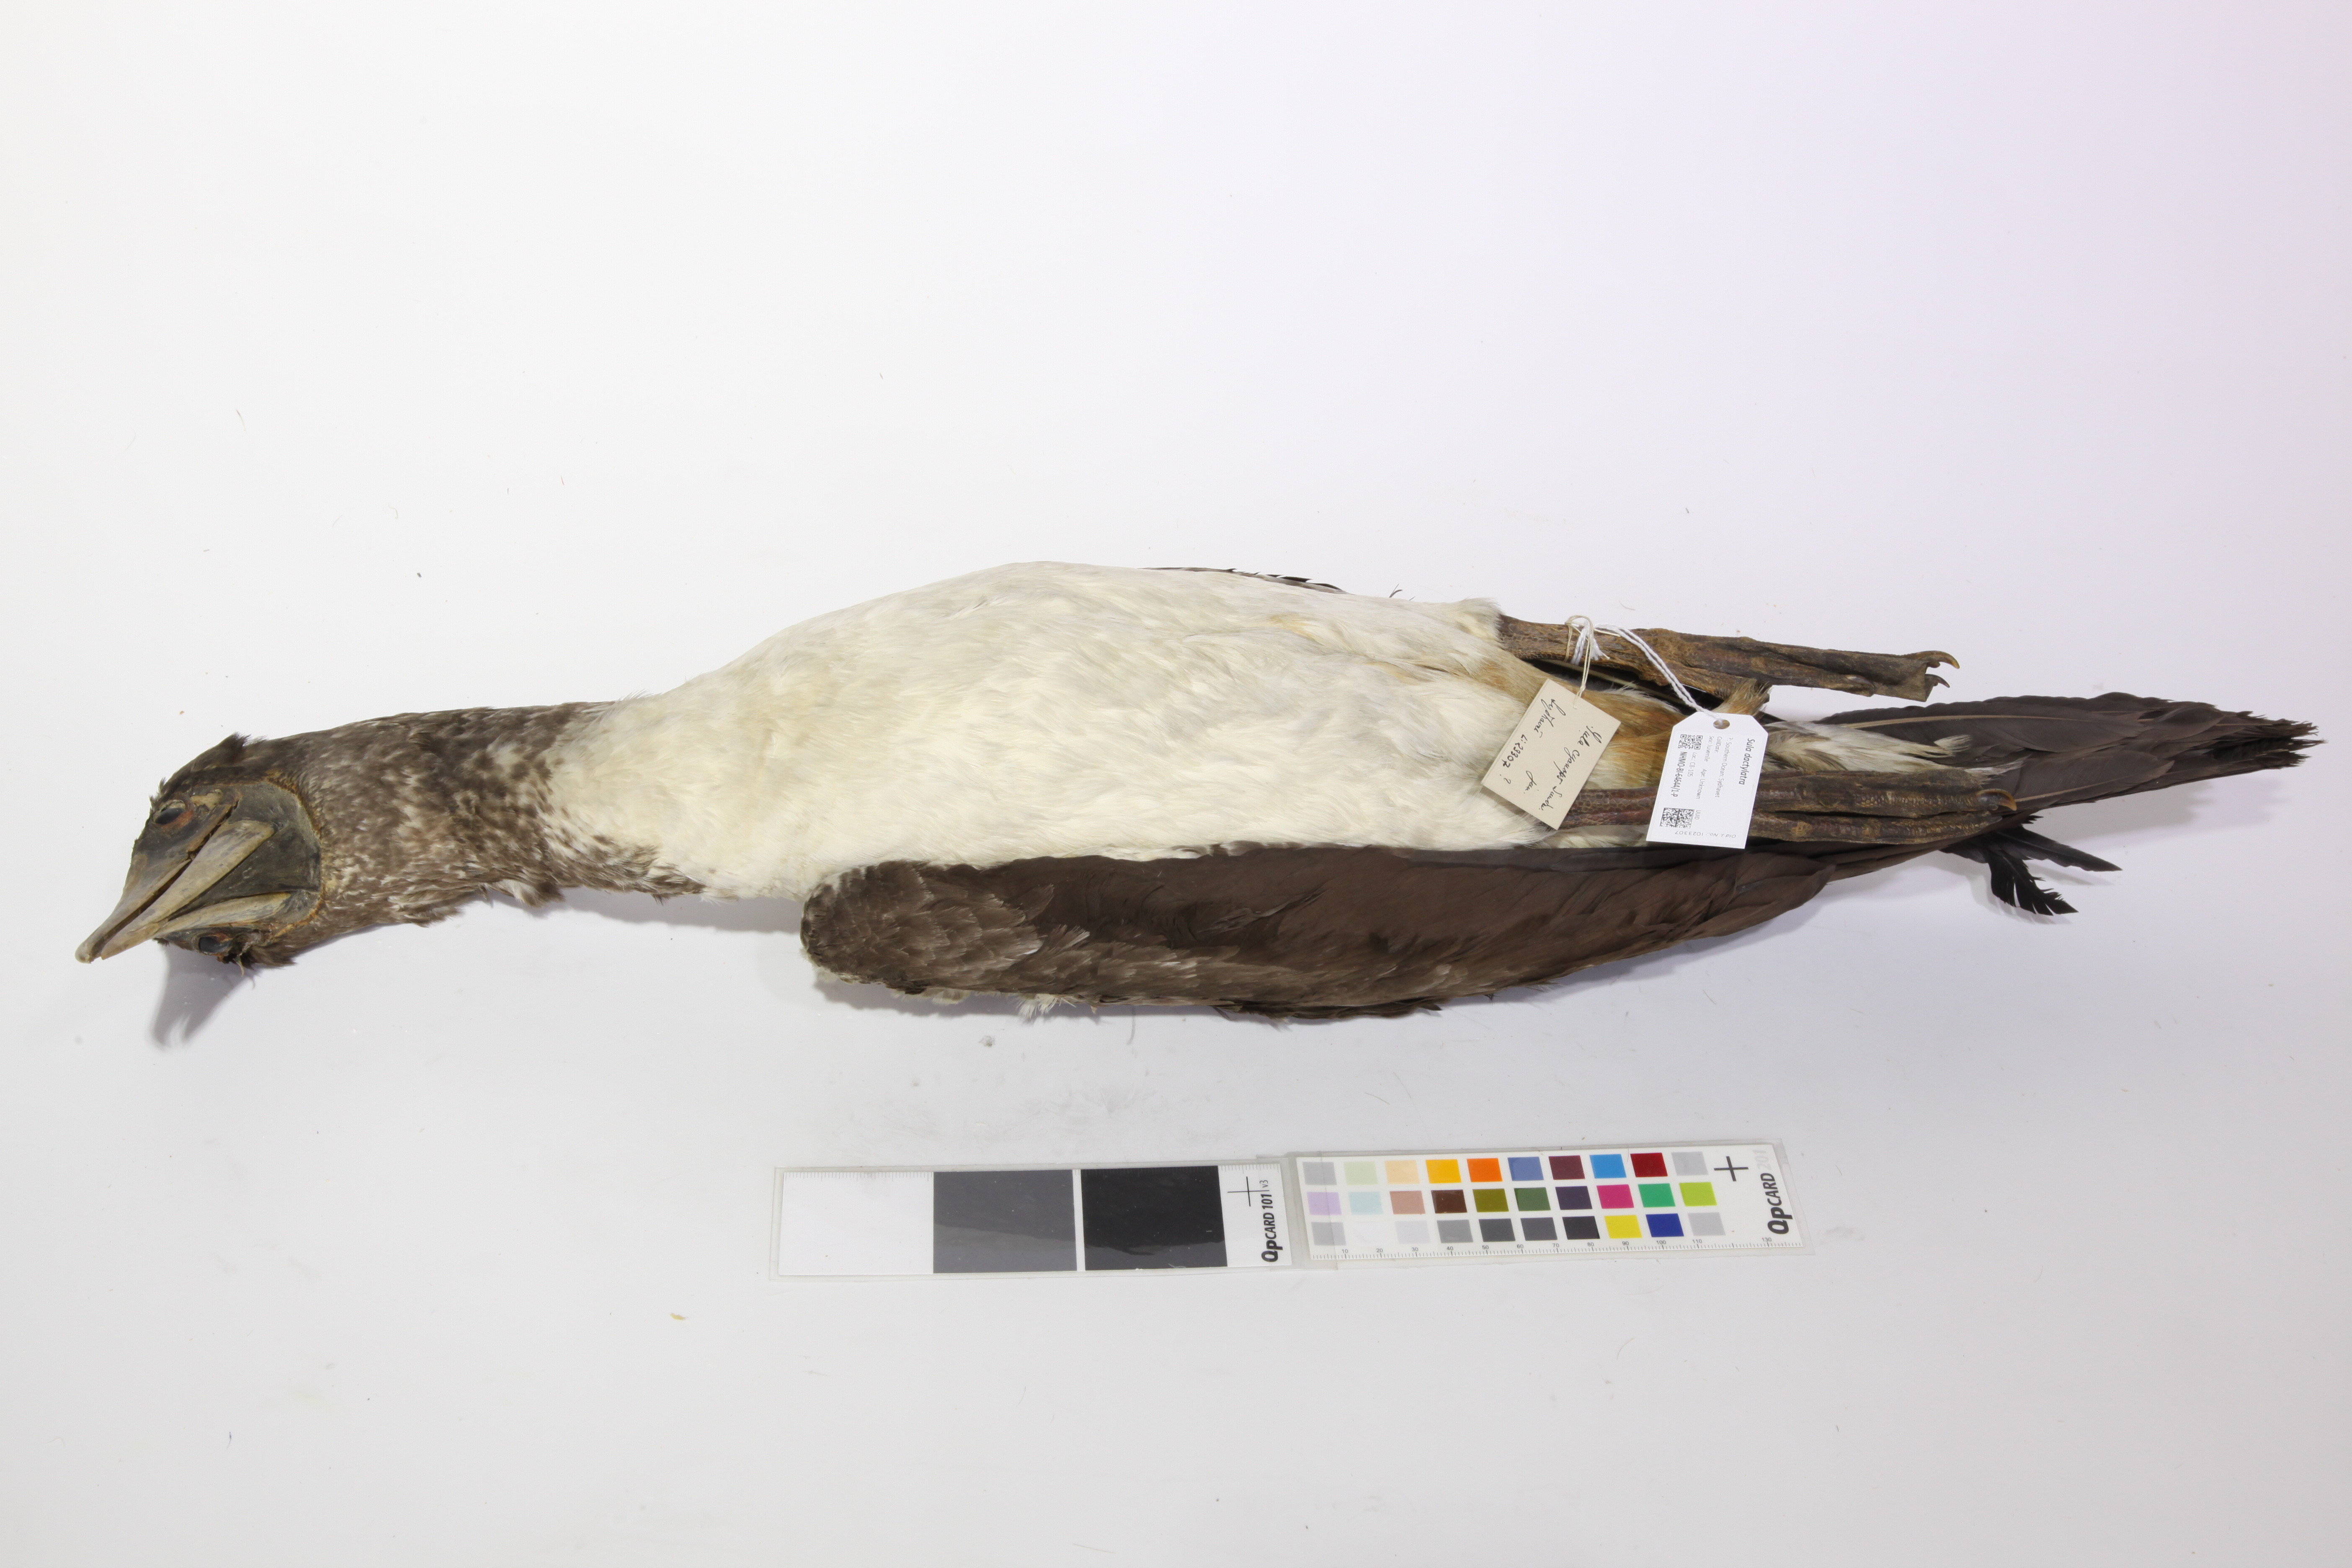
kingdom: Animalia
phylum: Chordata
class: Aves
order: Suliformes
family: Sulidae
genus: Sula
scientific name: Sula dactylatra
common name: Masked booby
